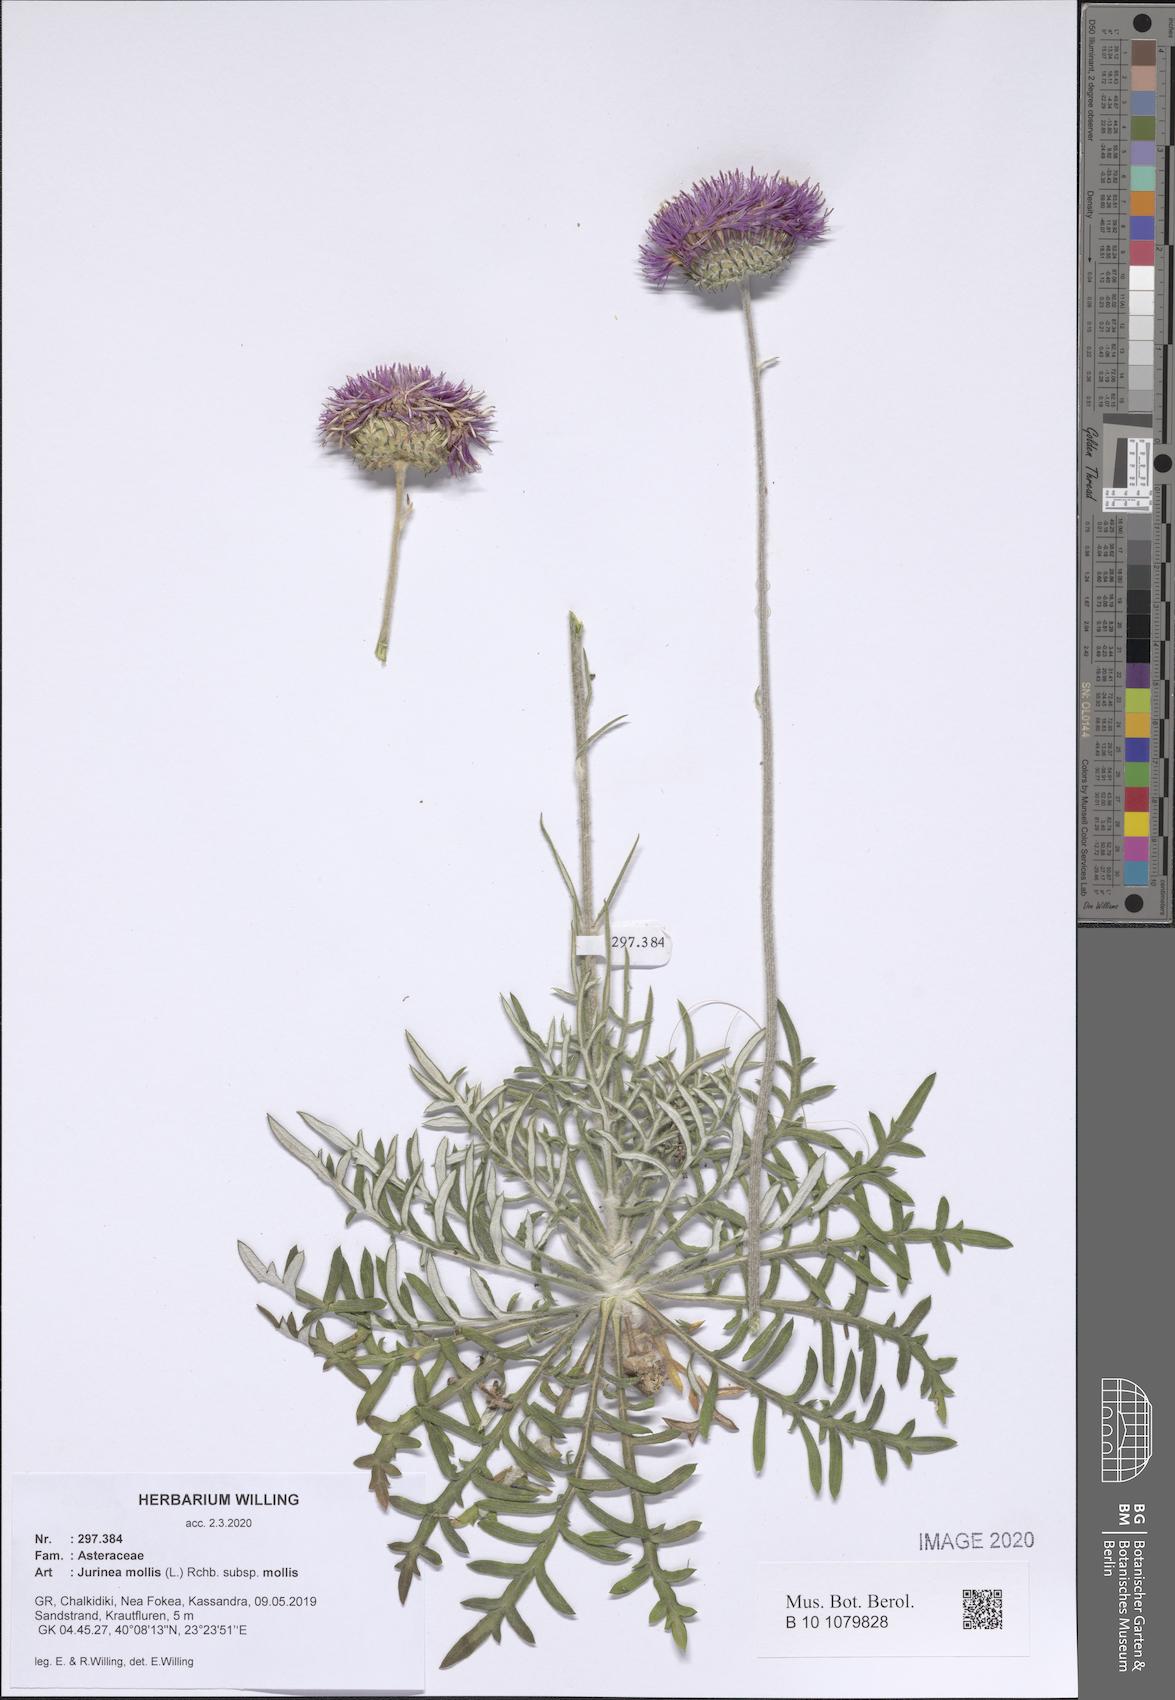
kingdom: Plantae
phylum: Tracheophyta
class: Magnoliopsida
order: Asterales
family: Asteraceae
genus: Jurinea
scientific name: Jurinea mollis
